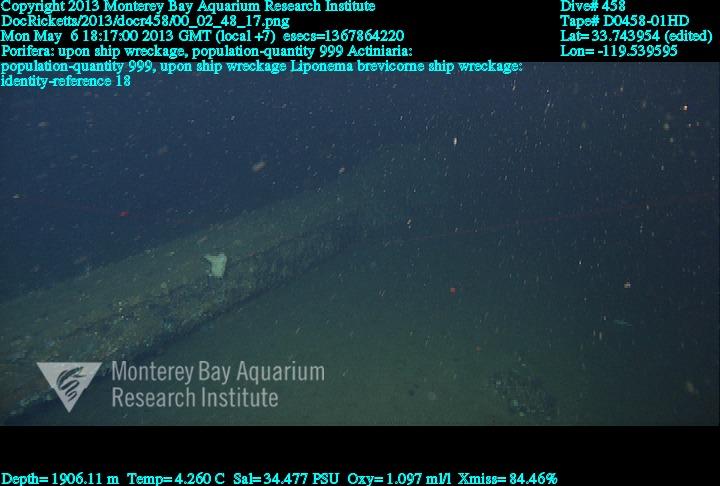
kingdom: Animalia
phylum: Porifera
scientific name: Porifera
